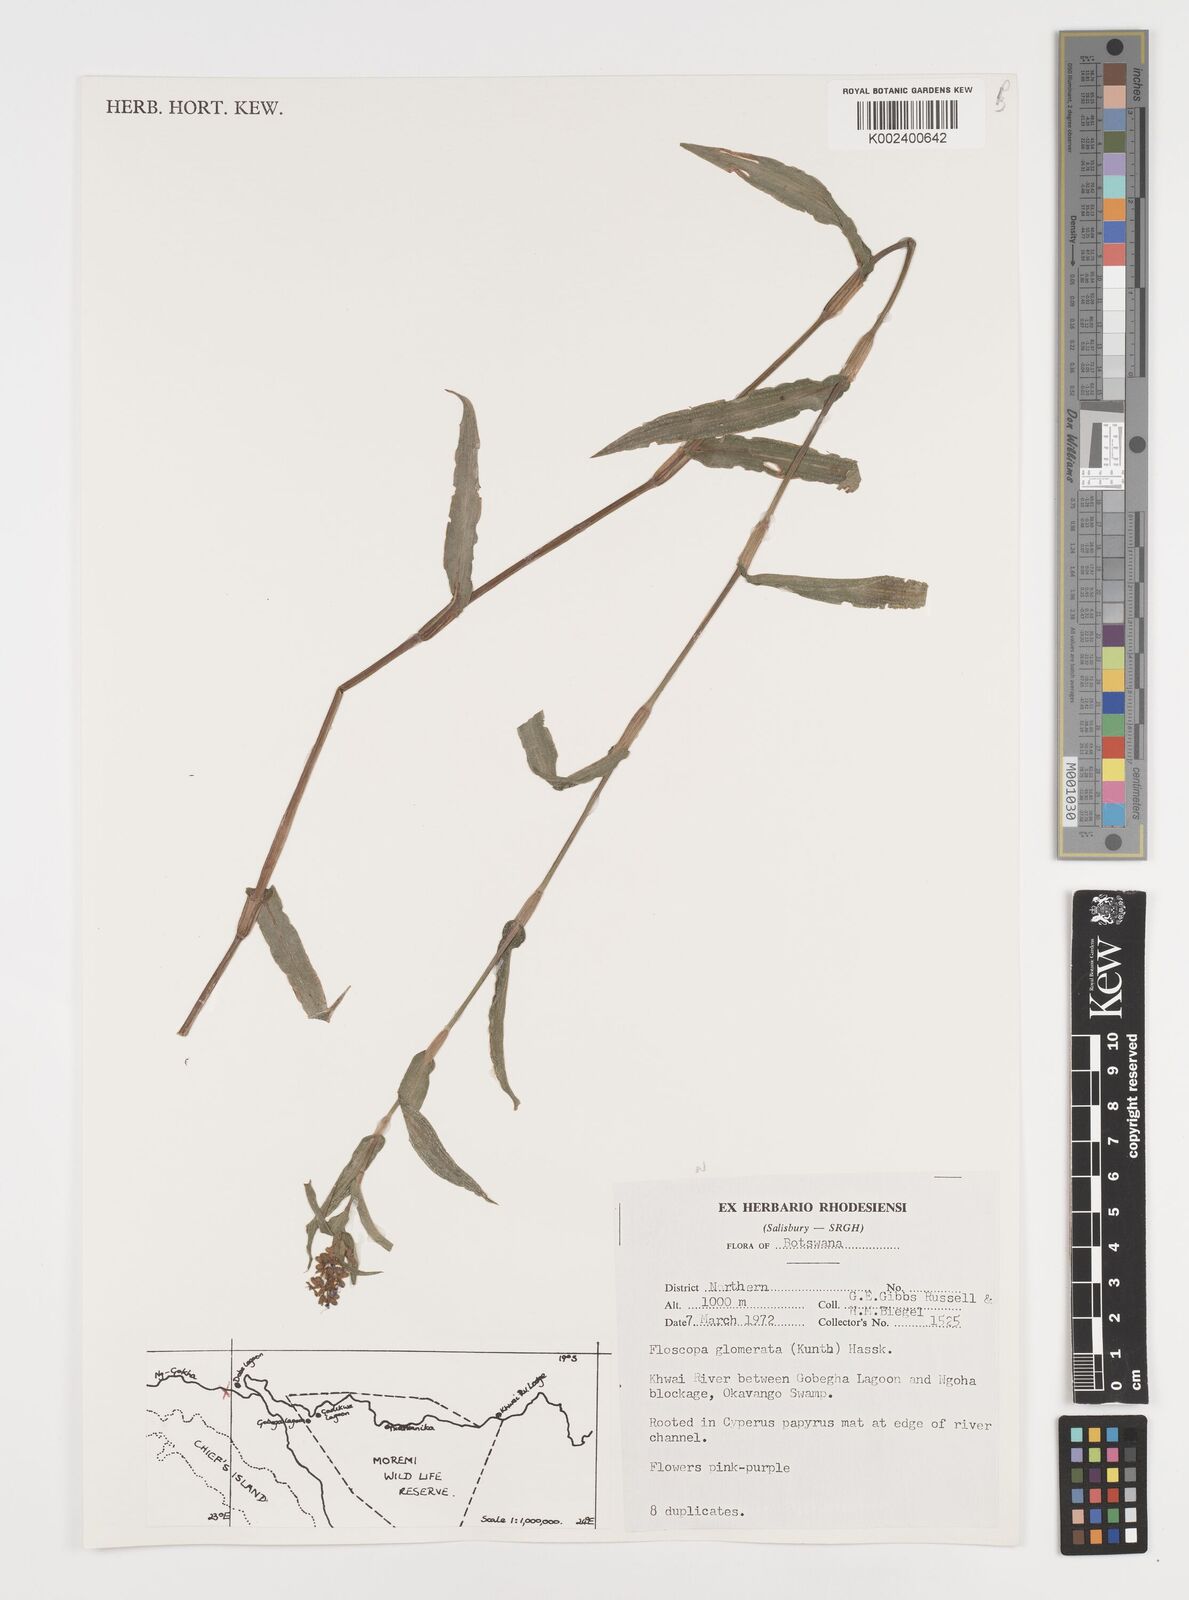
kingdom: Plantae
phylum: Tracheophyta
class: Liliopsida
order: Commelinales
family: Commelinaceae
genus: Floscopa
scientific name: Floscopa glomerata
